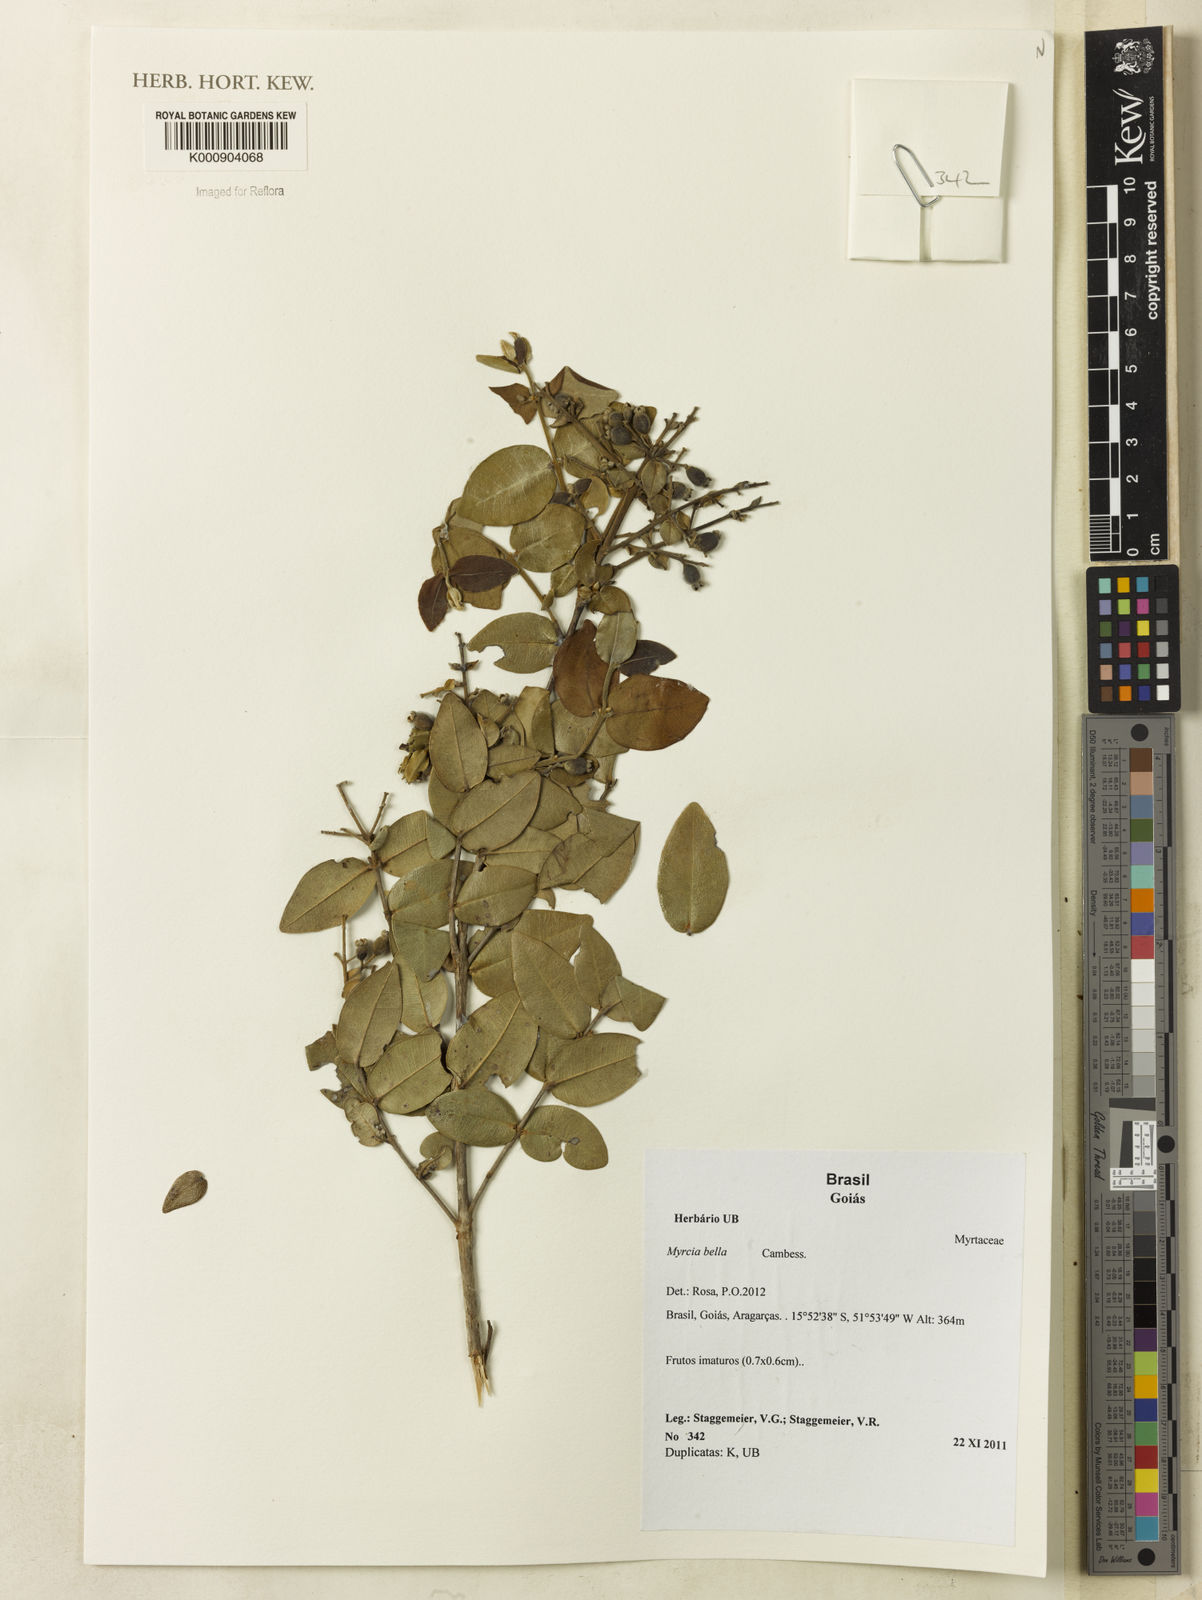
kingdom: Plantae
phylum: Tracheophyta
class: Magnoliopsida
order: Myrtales
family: Myrtaceae
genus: Myrcia
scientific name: Myrcia bella
